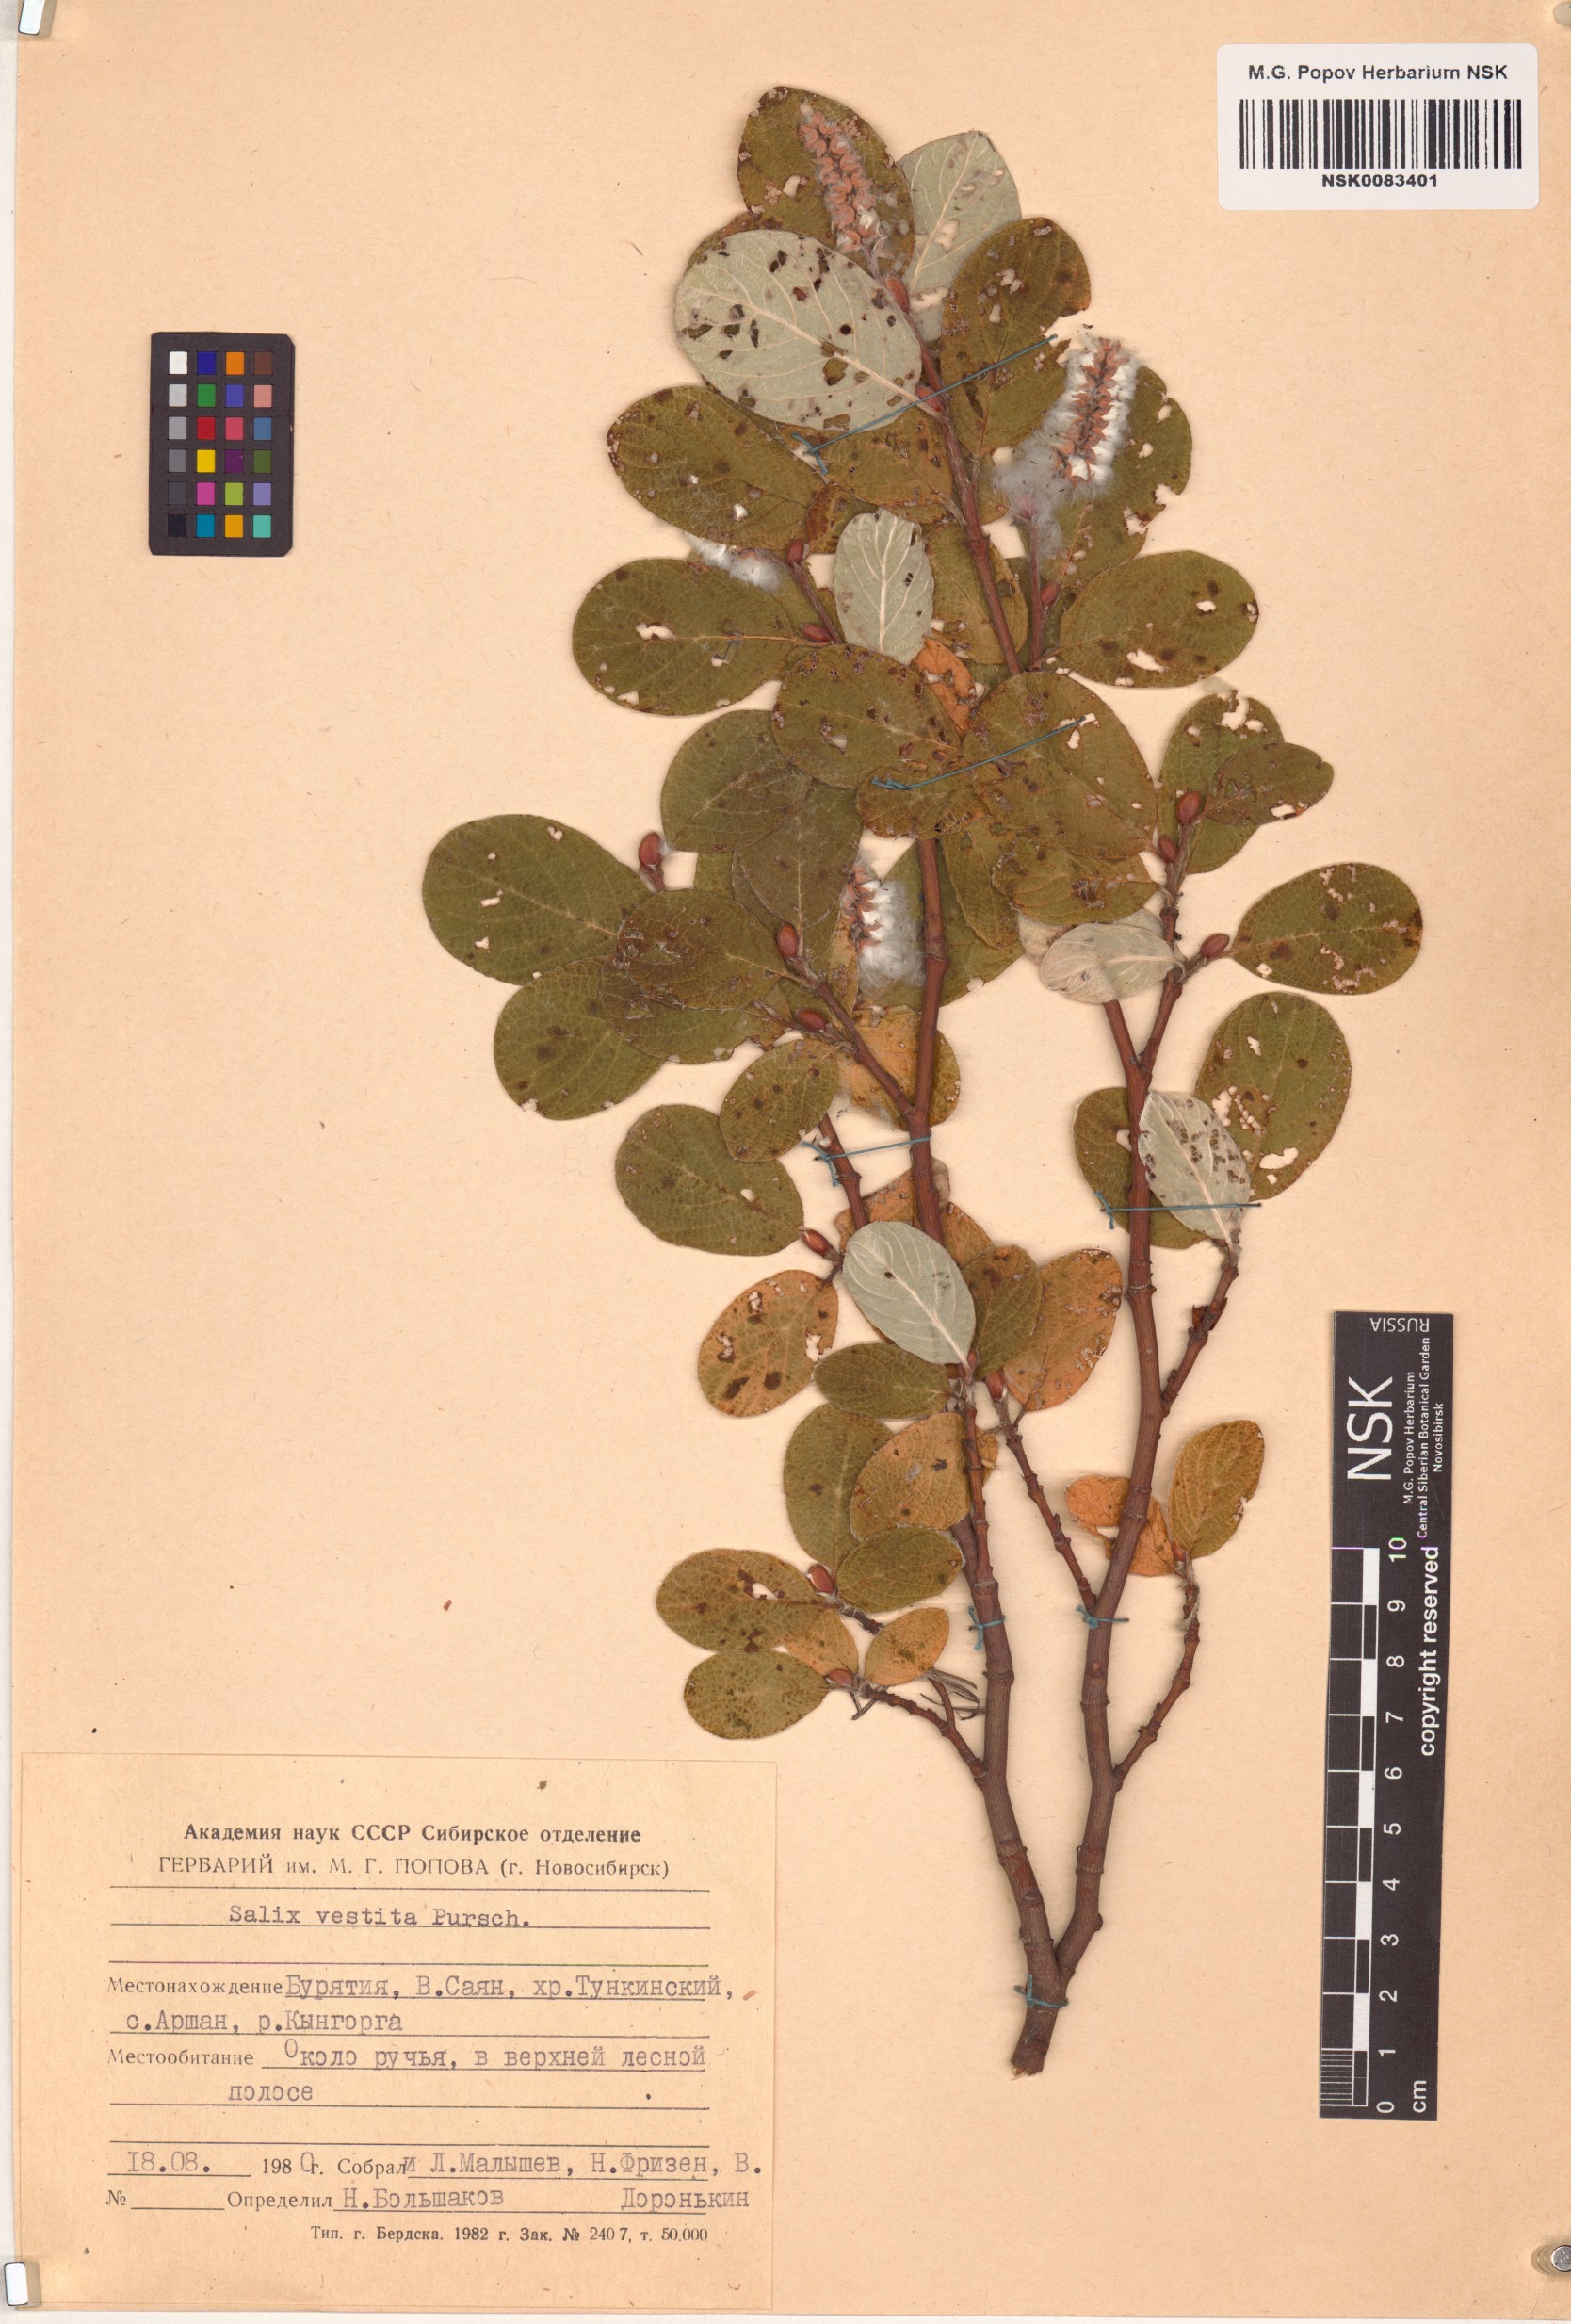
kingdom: Plantae
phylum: Tracheophyta
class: Magnoliopsida
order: Malpighiales
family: Salicaceae
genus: Salix
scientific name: Salix vestita
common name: Hairy willow
